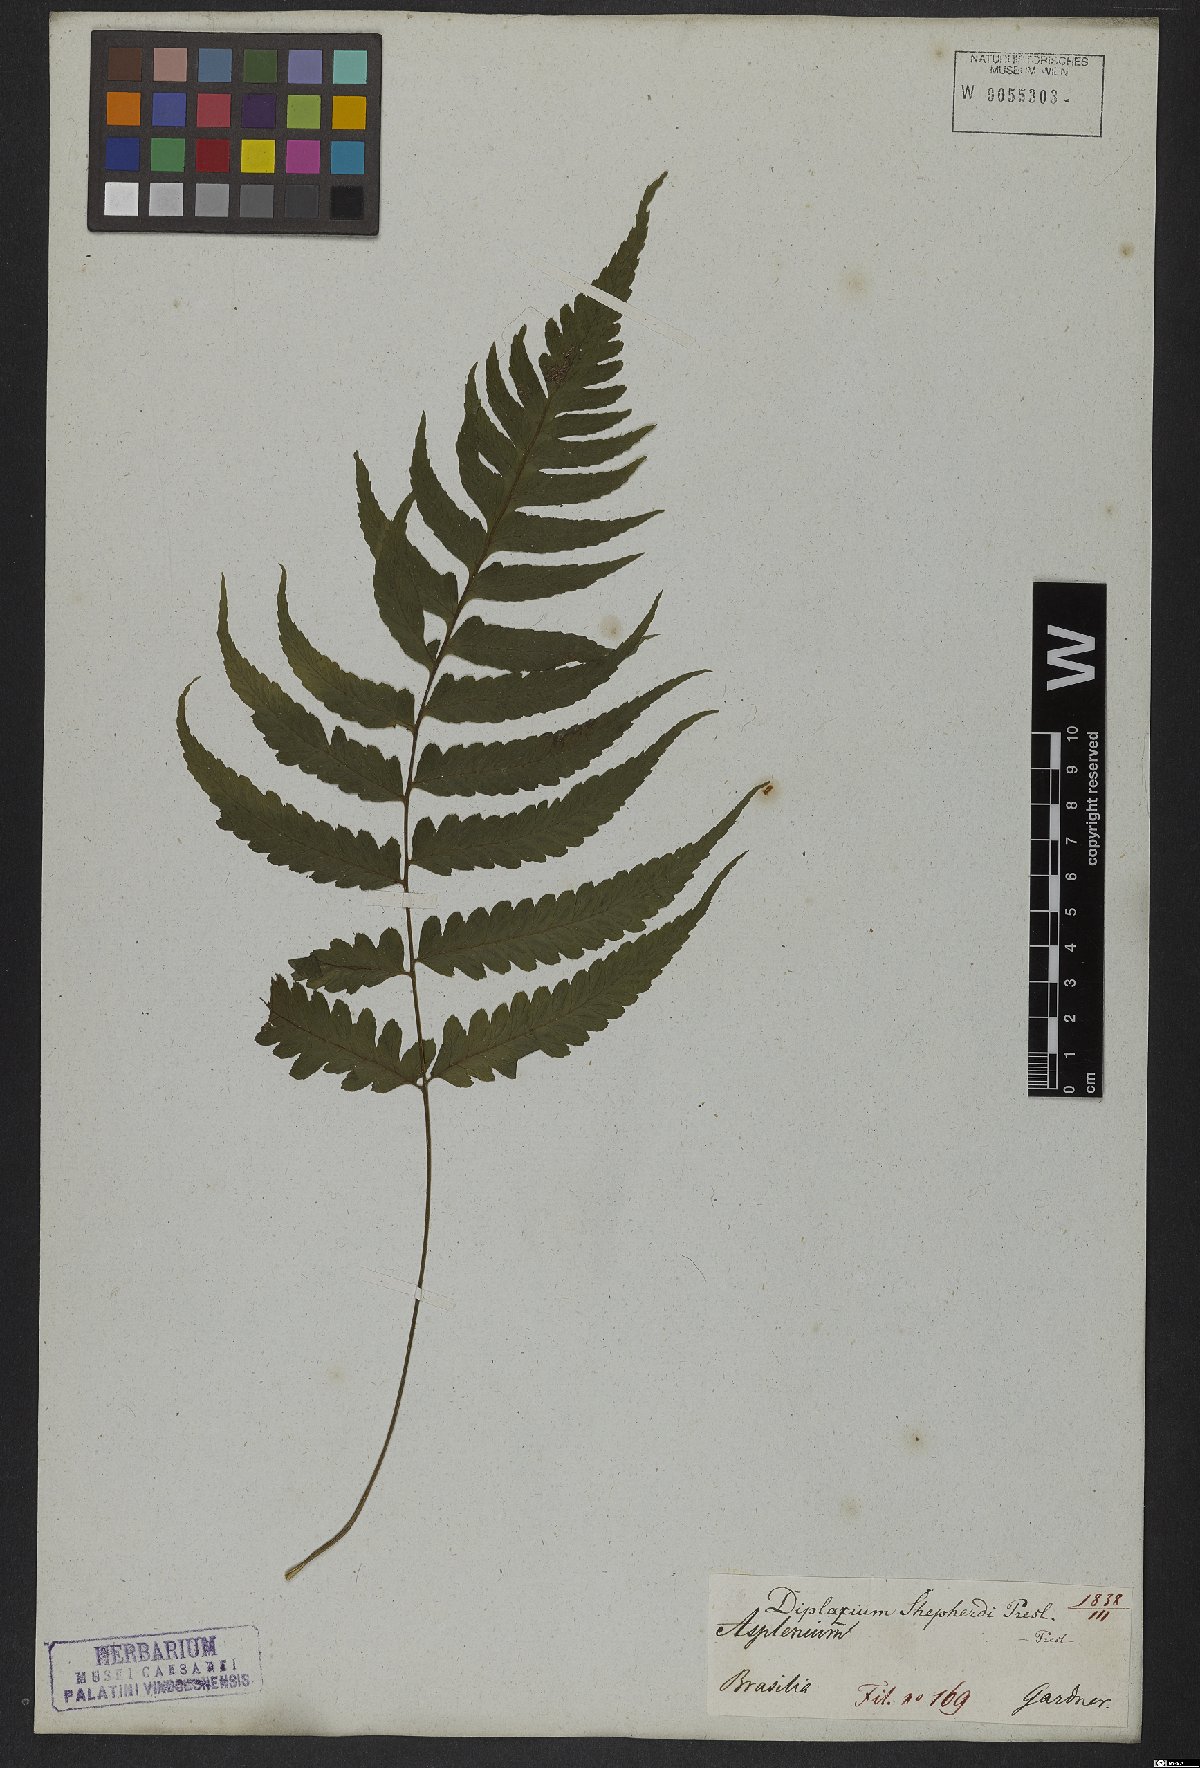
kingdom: Plantae
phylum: Tracheophyta
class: Polypodiopsida
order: Polypodiales
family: Athyriaceae
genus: Diplazium
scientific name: Diplazium cristatum
